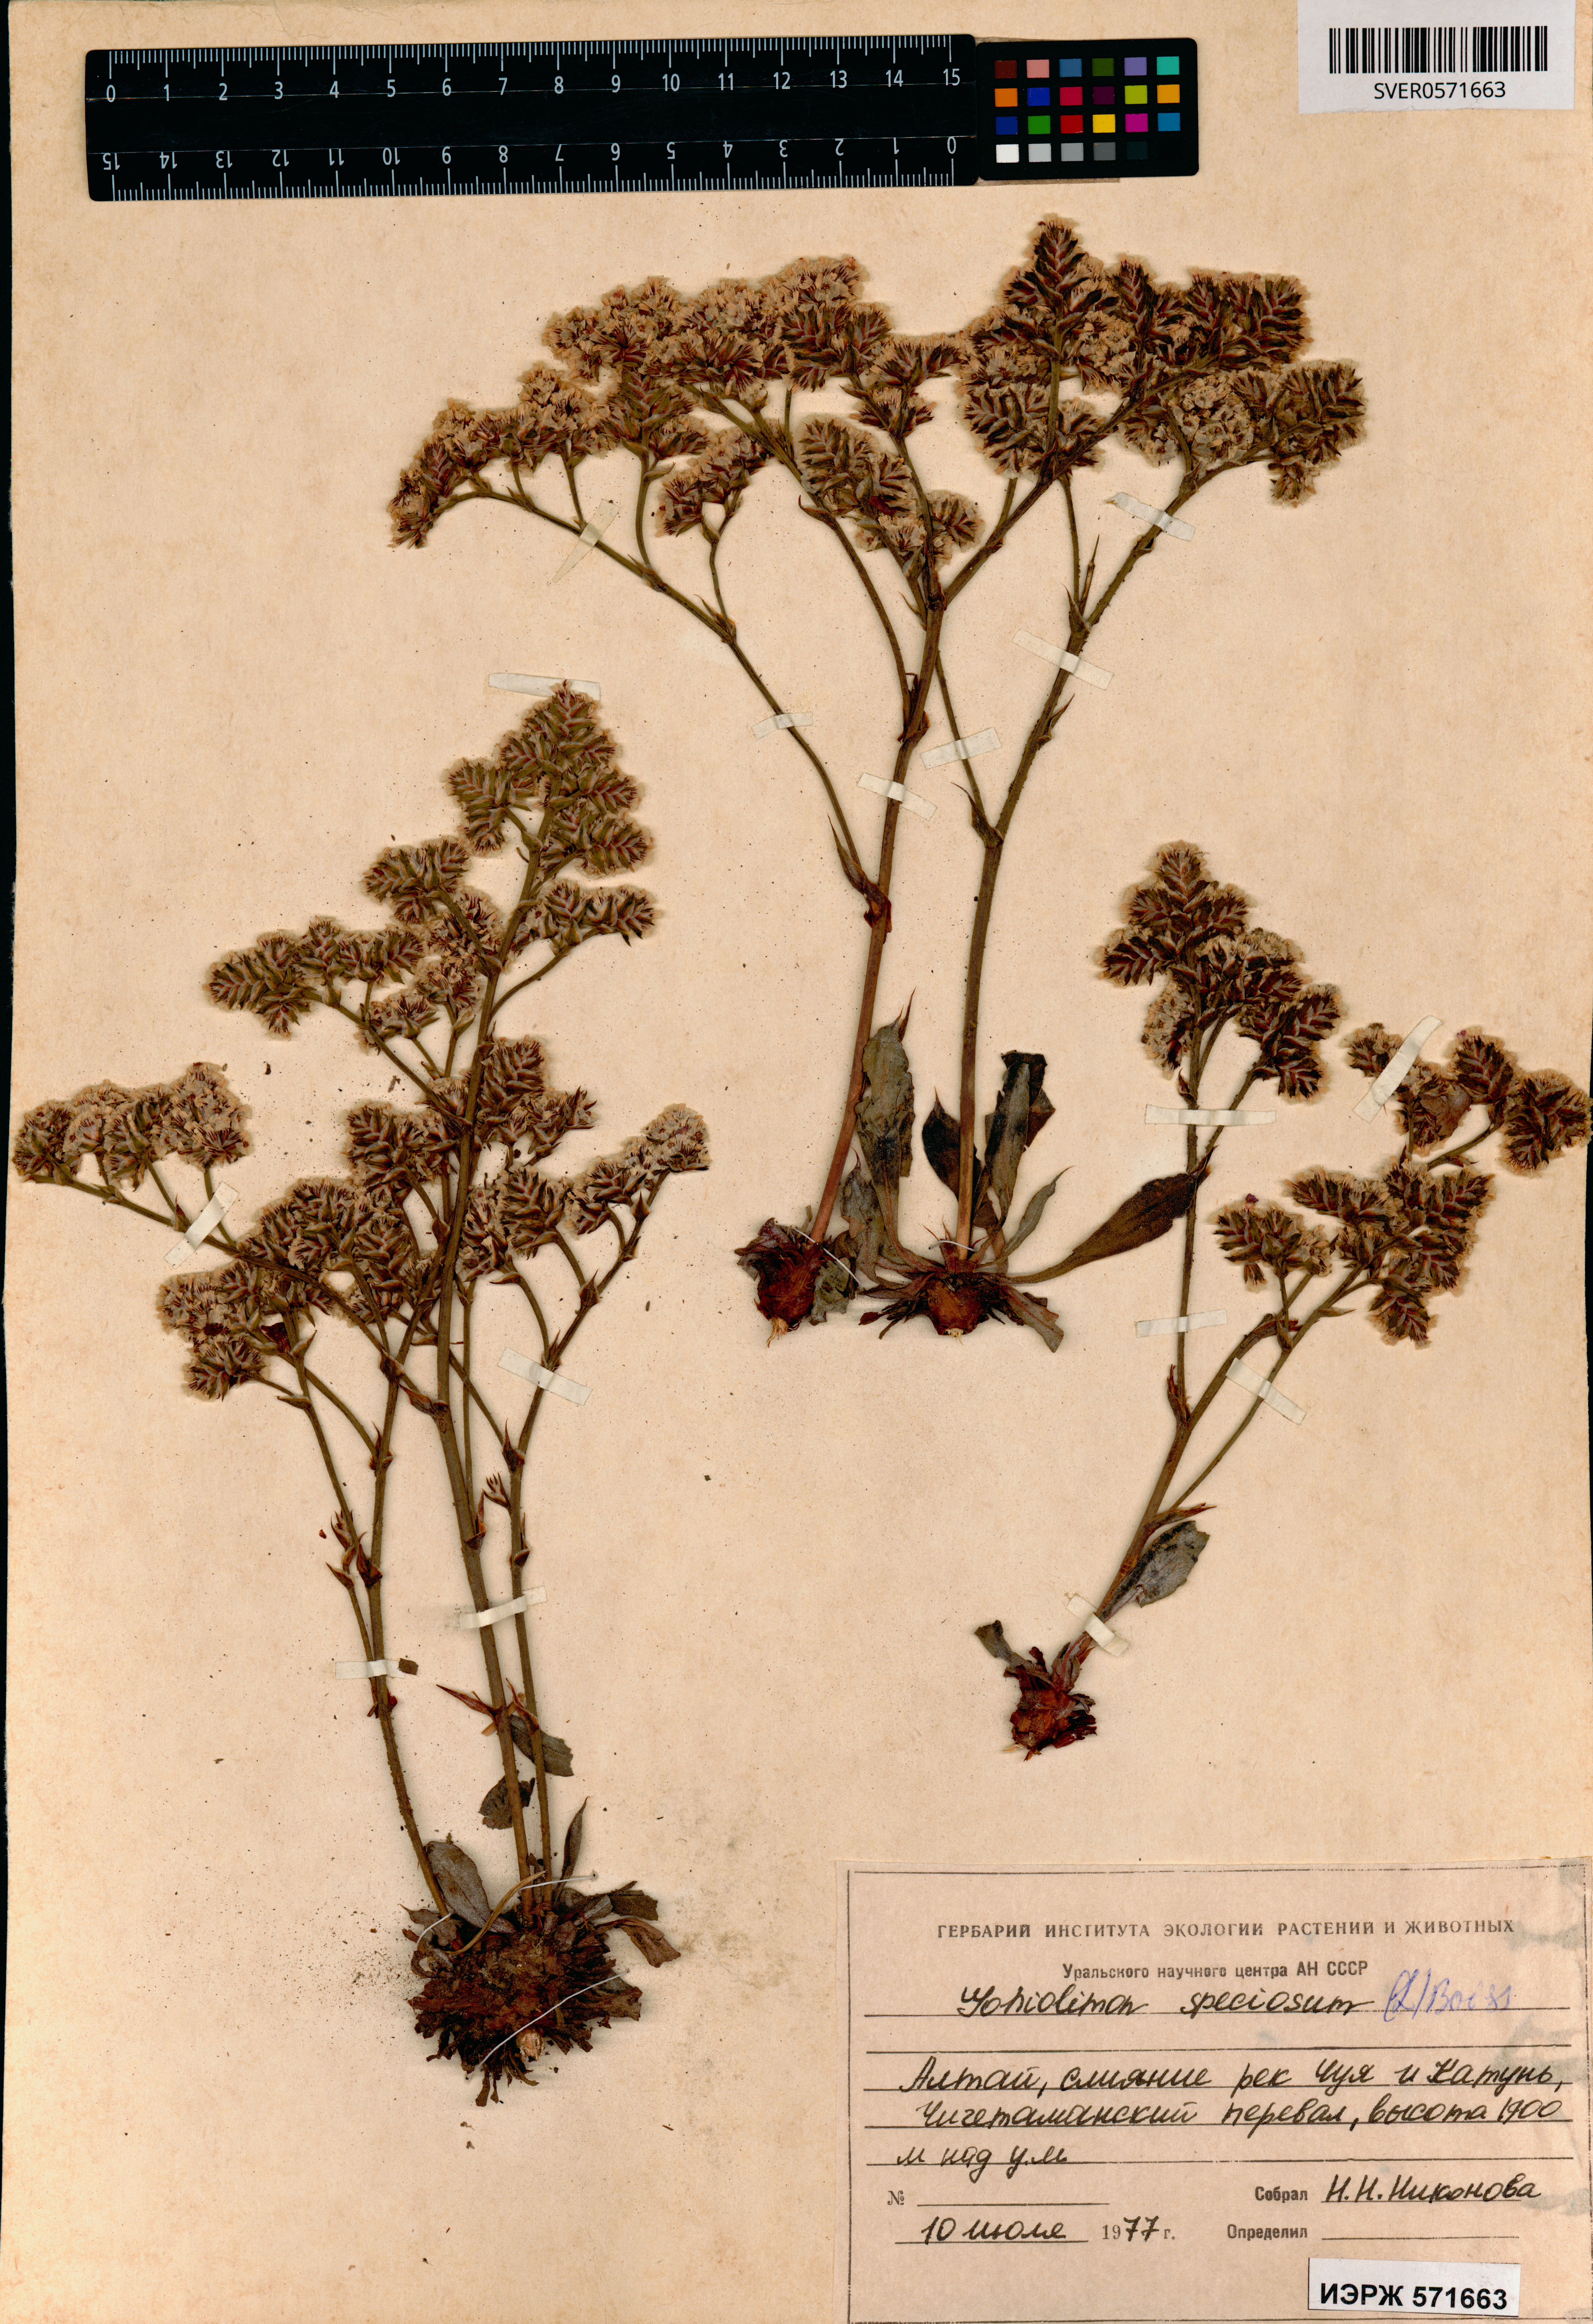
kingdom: Plantae
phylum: Tracheophyta
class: Magnoliopsida
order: Caryophyllales
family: Plumbaginaceae
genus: Goniolimon
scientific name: Goniolimon speciosum
